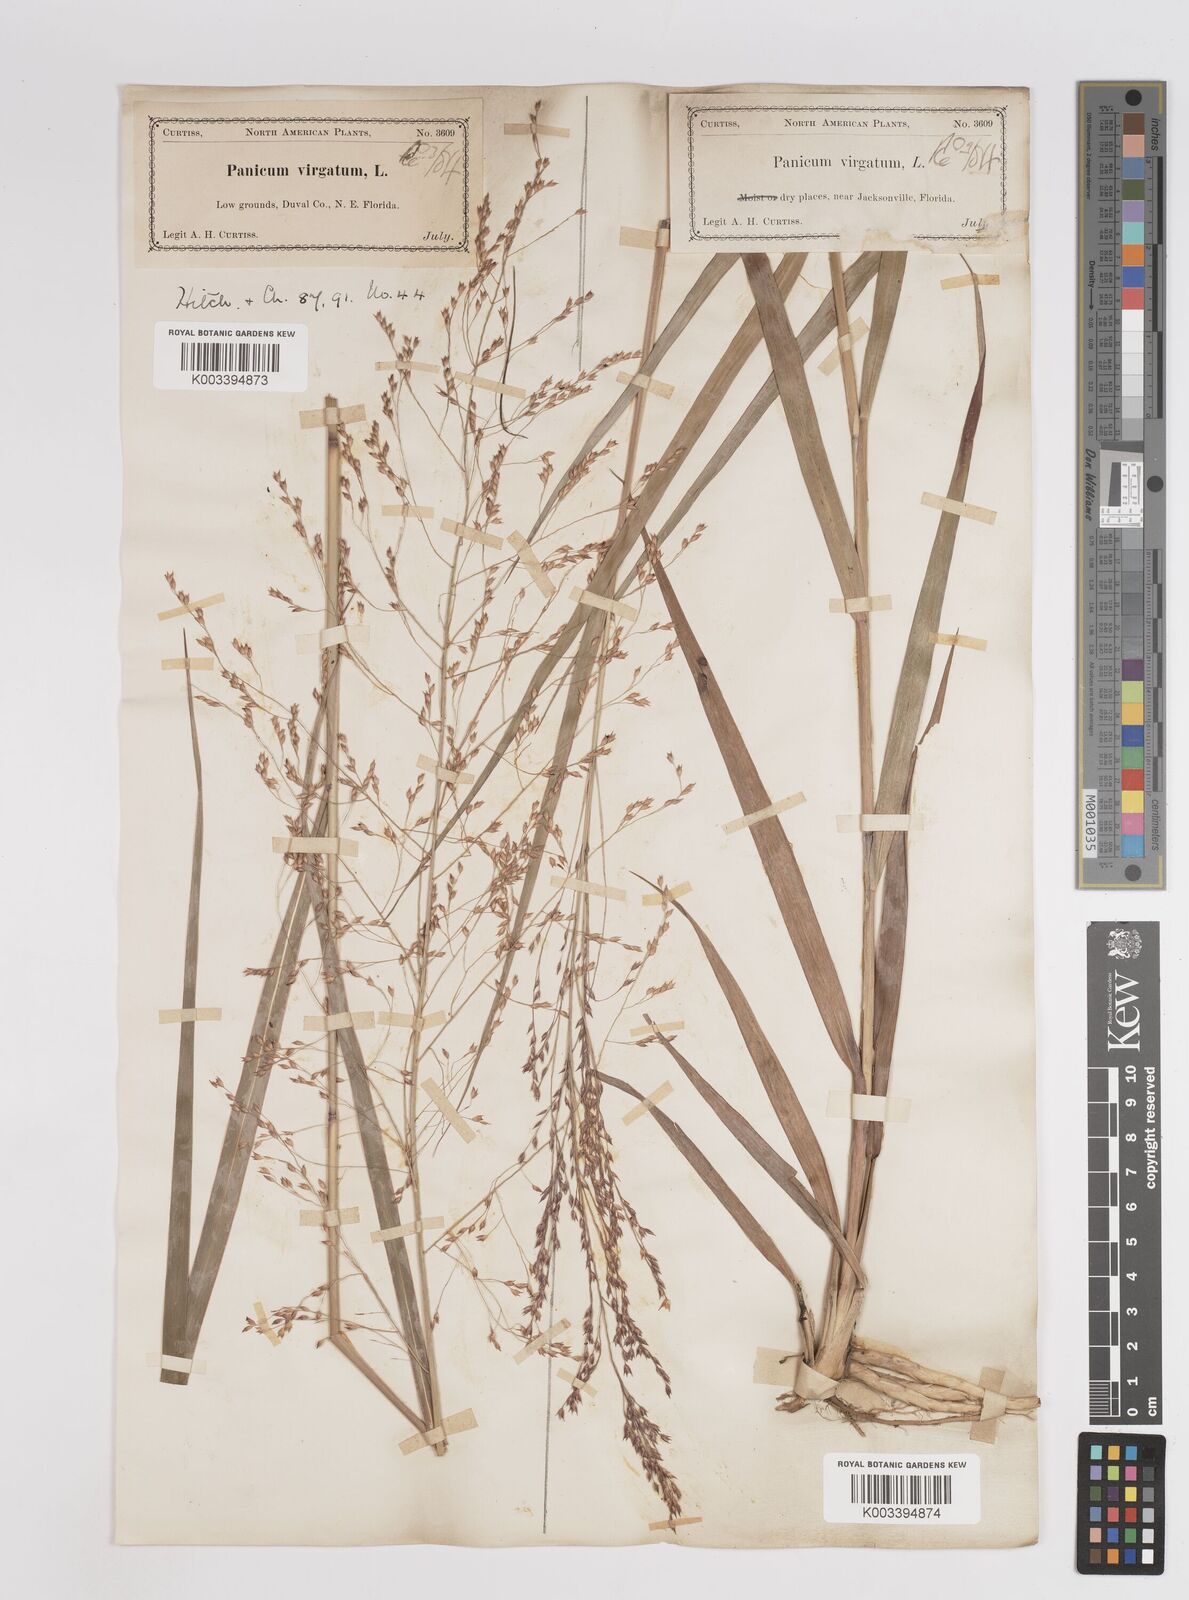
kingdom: Plantae
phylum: Tracheophyta
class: Liliopsida
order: Poales
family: Poaceae
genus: Panicum
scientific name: Panicum virgatum
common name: Switchgrass
